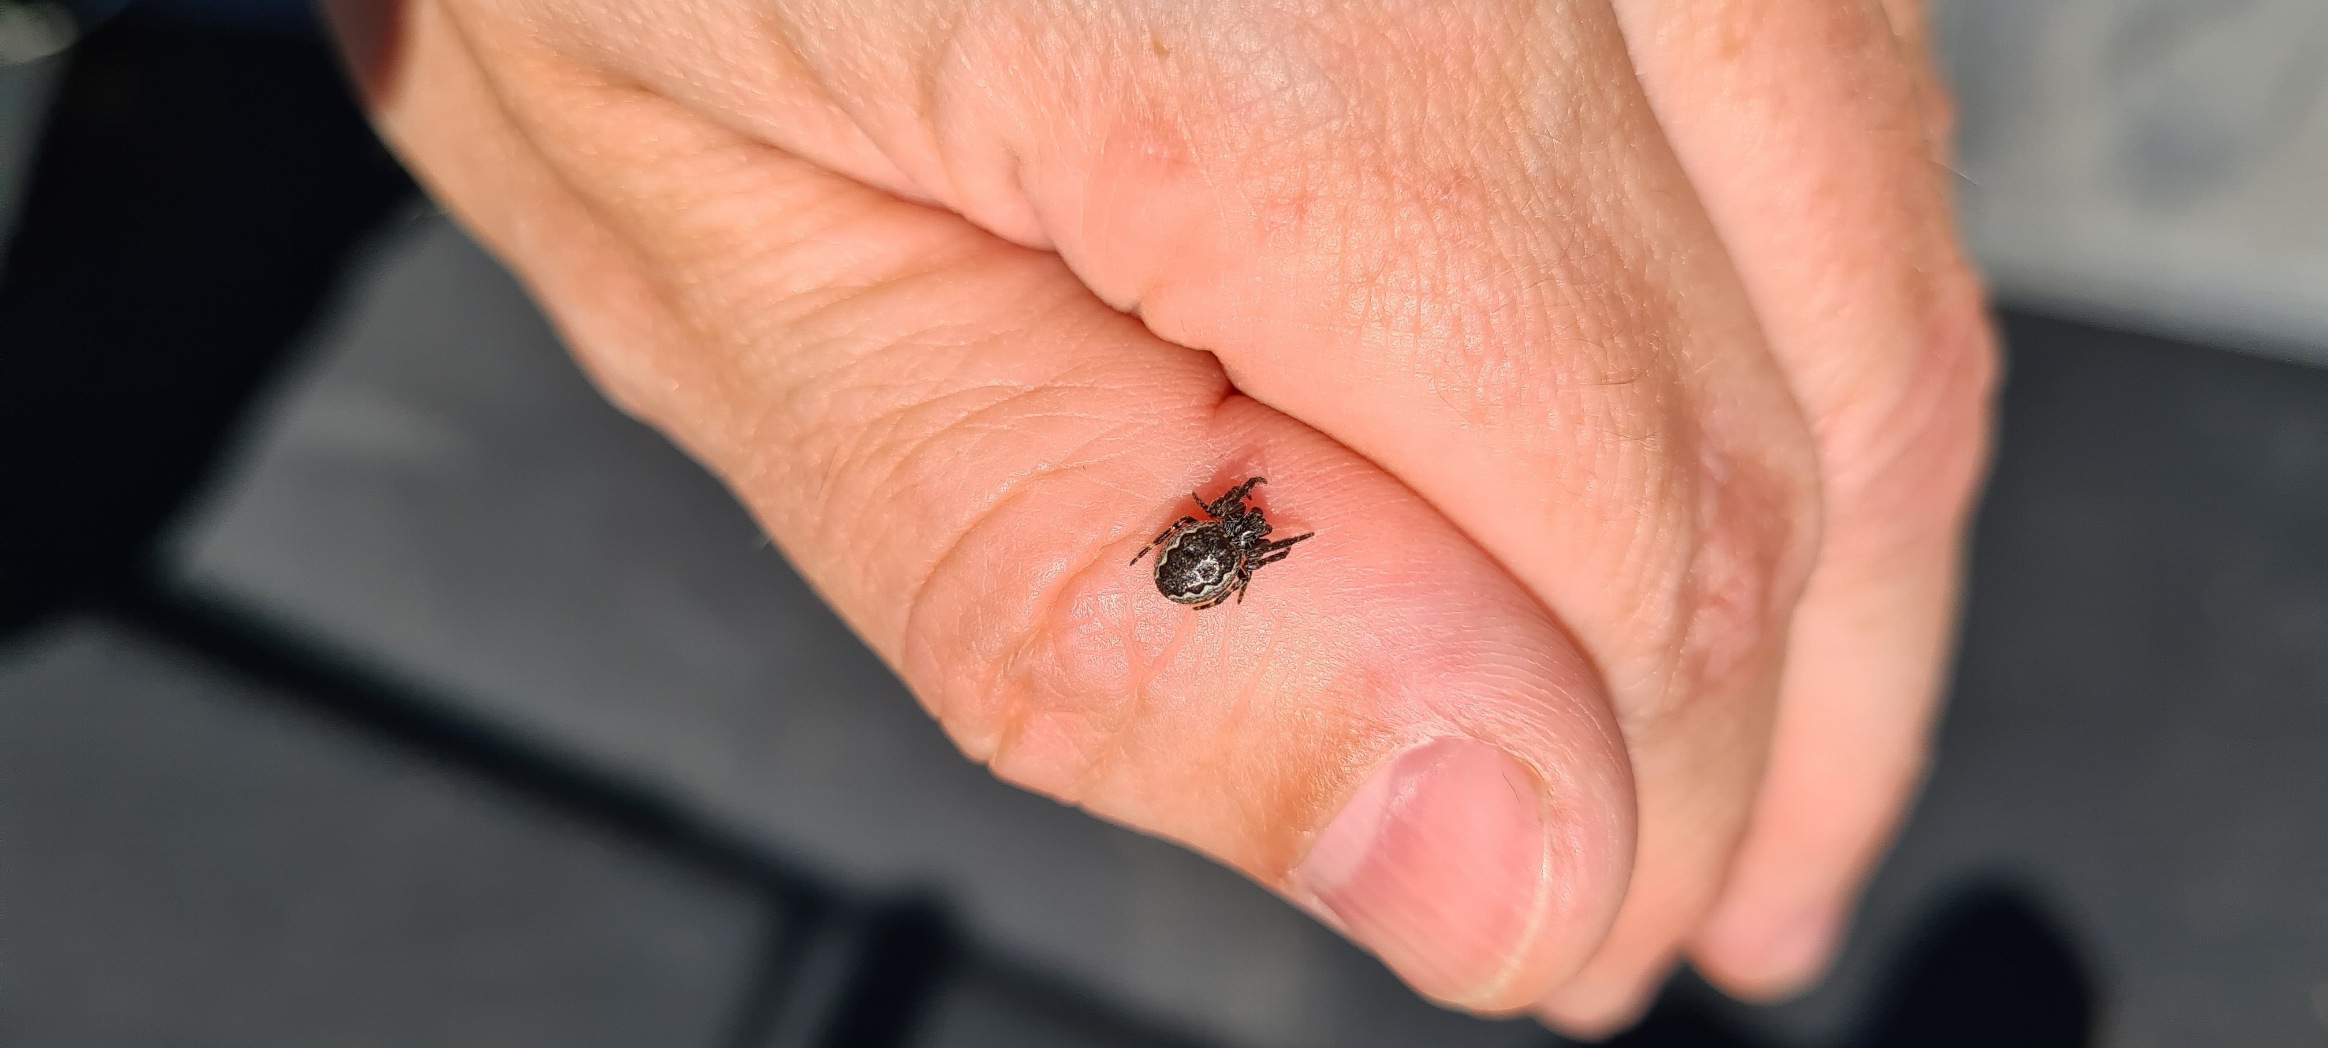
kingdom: Animalia
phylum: Arthropoda
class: Arachnida
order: Araneae
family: Araneidae
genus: Nuctenea
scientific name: Nuctenea umbratica
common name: Flad hjulspinder
